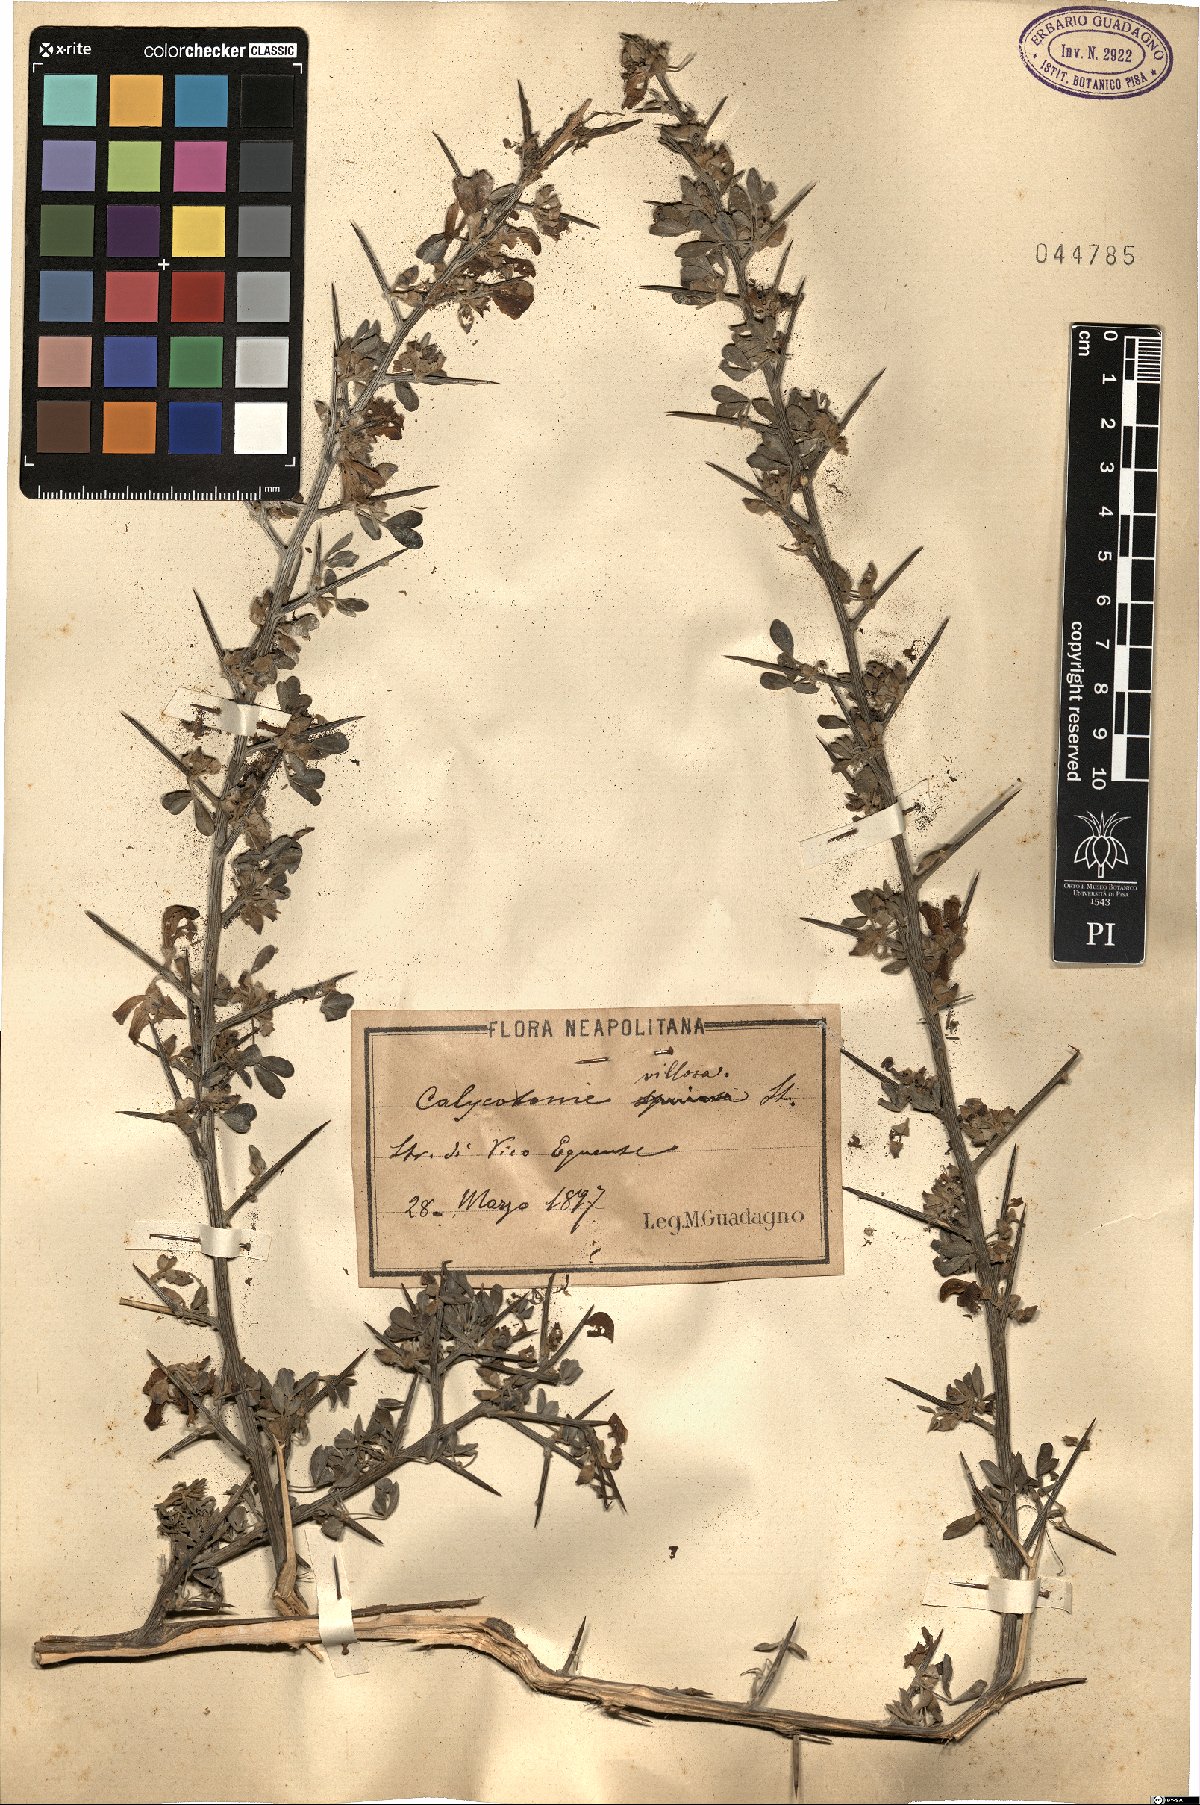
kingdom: Plantae
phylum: Tracheophyta
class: Magnoliopsida
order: Fabales
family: Fabaceae
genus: Calicotome
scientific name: Calicotome villosa
